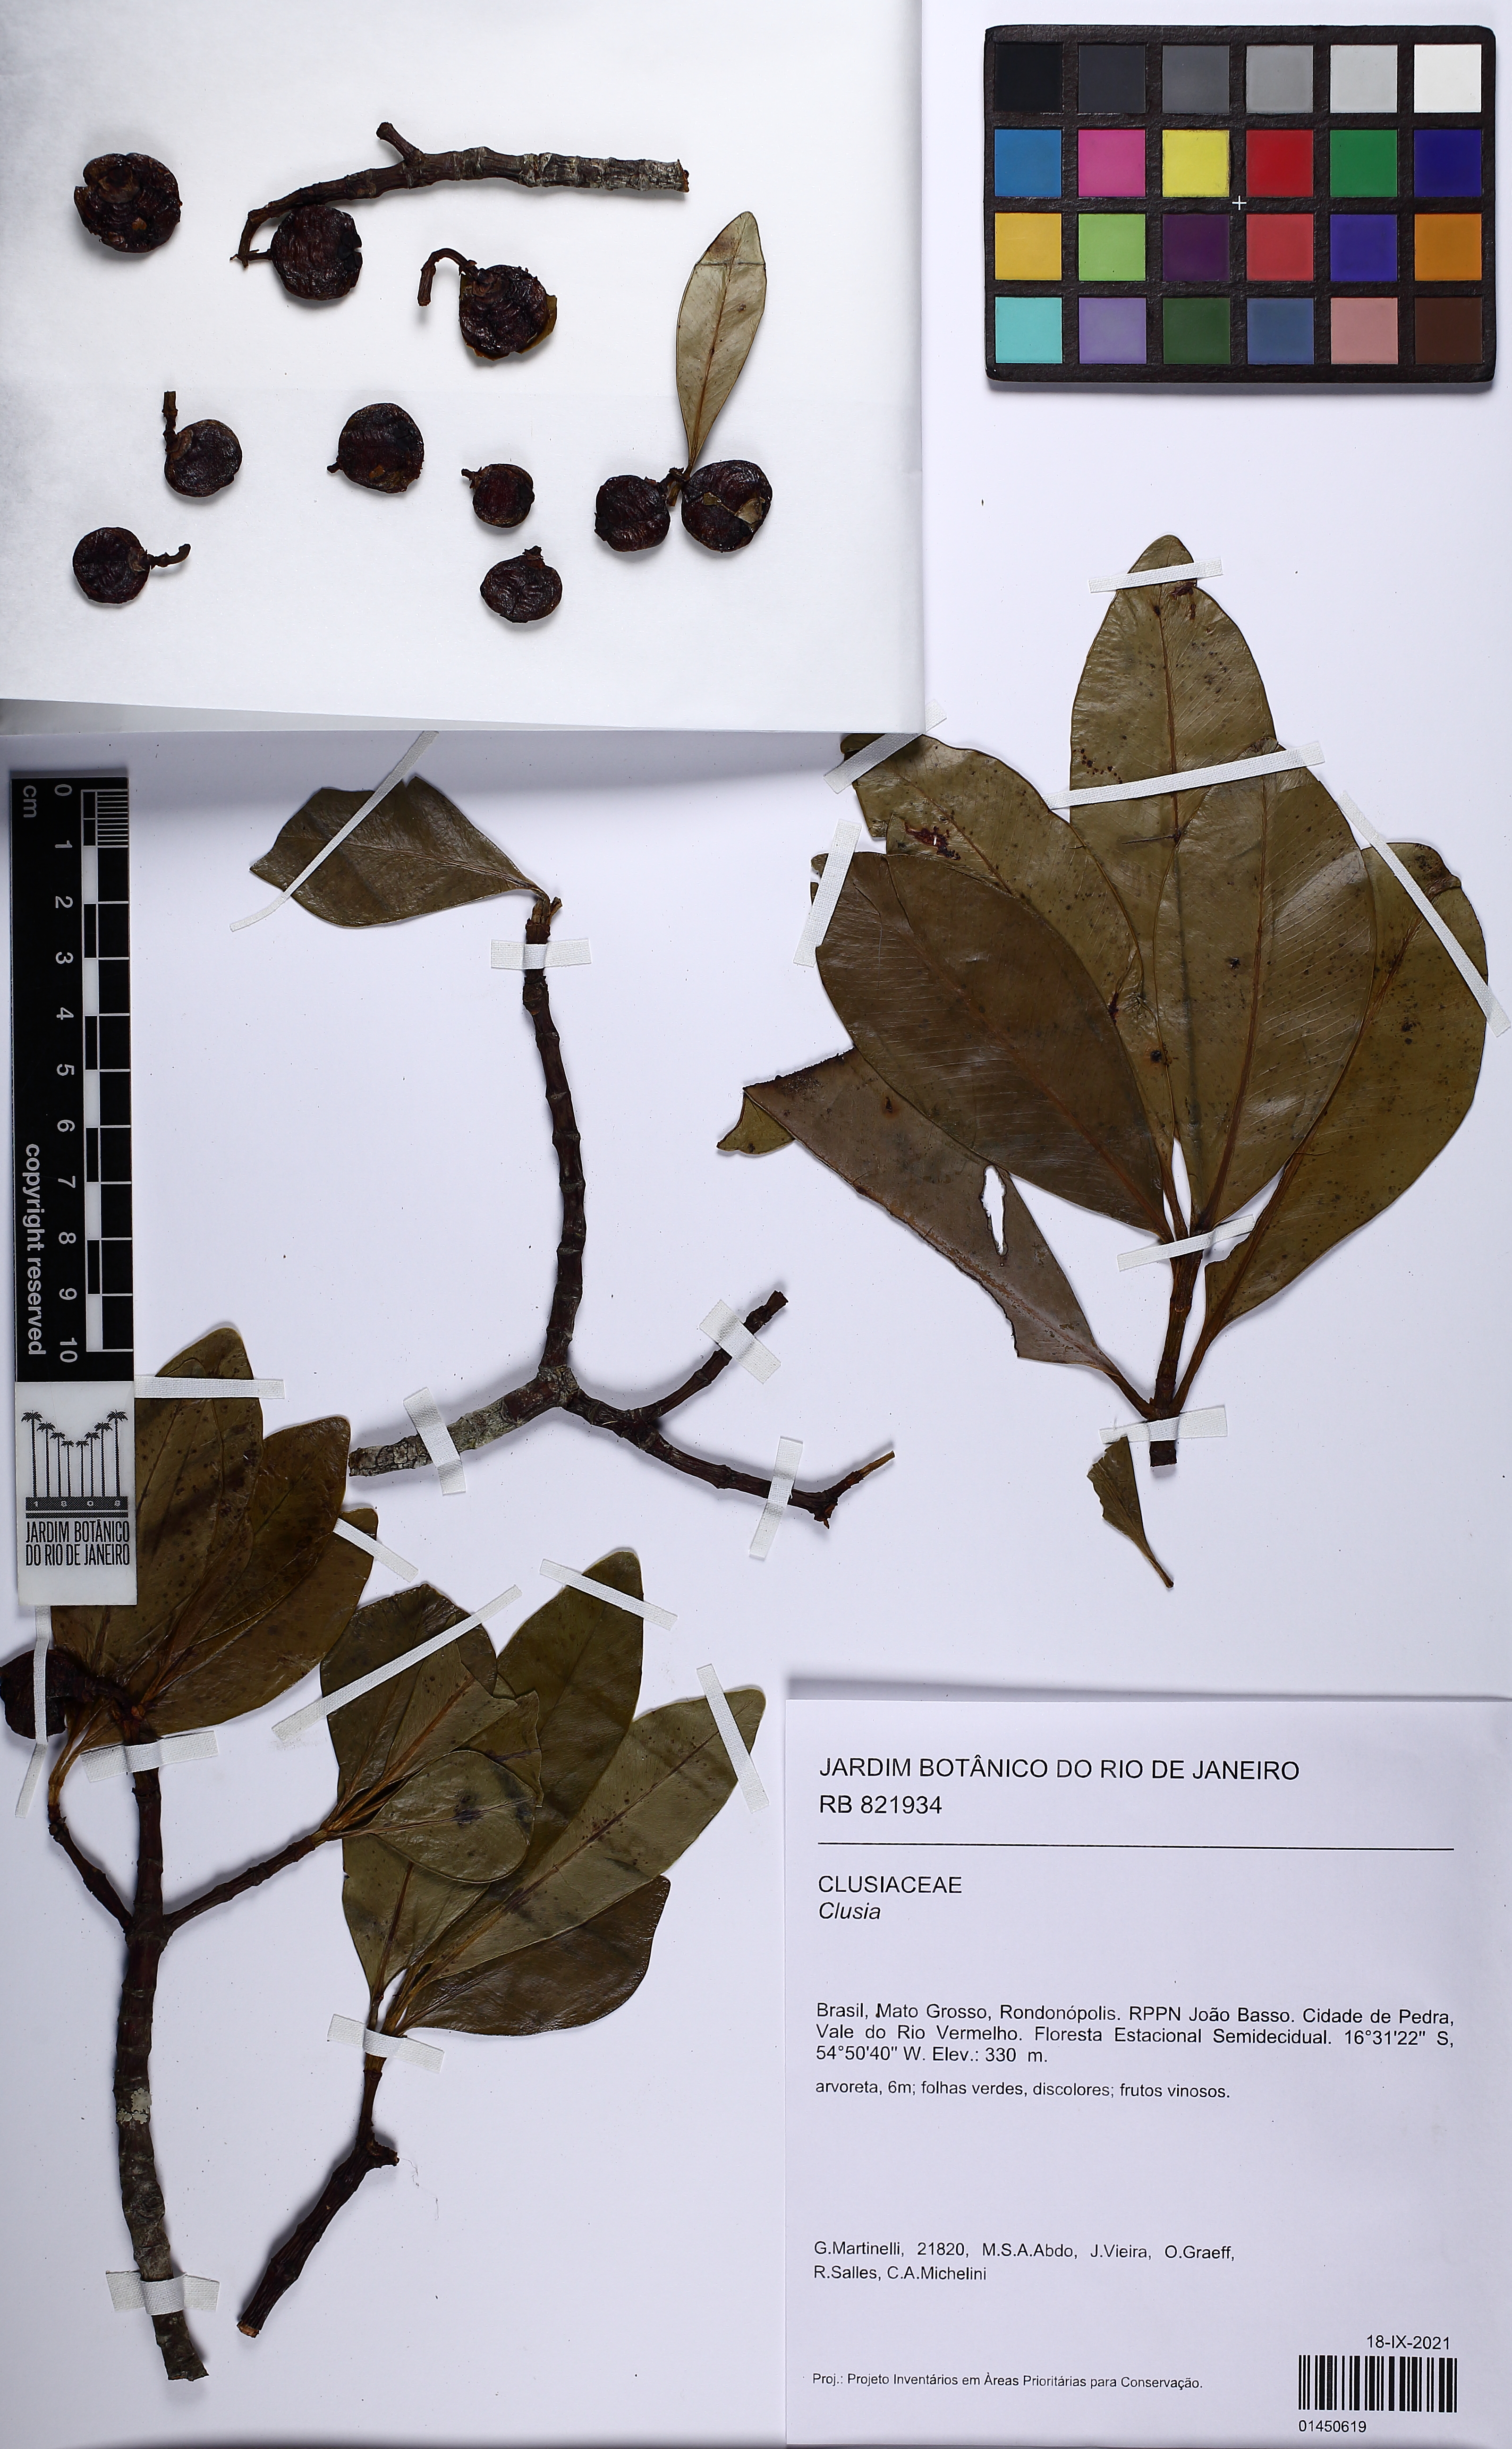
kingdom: Plantae
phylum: Tracheophyta
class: Magnoliopsida
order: Malpighiales
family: Clusiaceae
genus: Clusia
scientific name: Clusia
